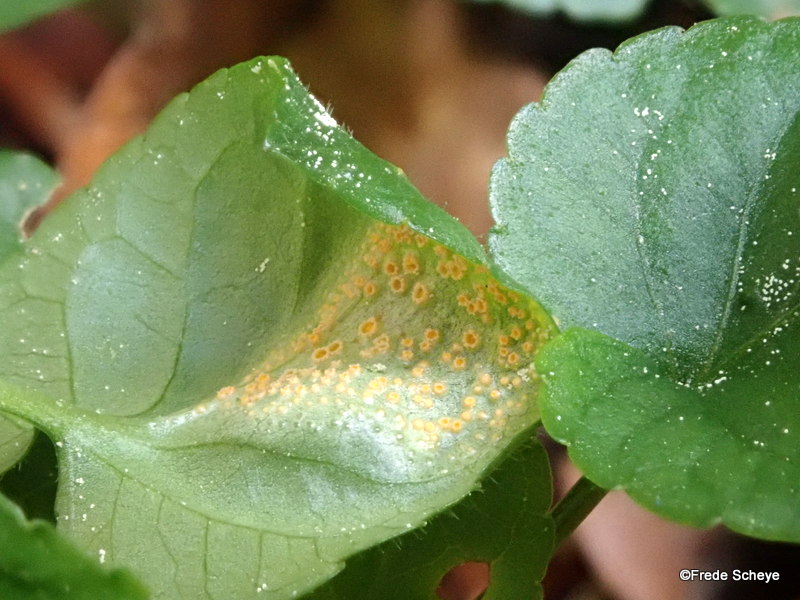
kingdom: Fungi
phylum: Basidiomycota
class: Pucciniomycetes
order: Pucciniales
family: Pucciniaceae
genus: Puccinia
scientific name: Puccinia violae
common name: viol-tvecellerust
